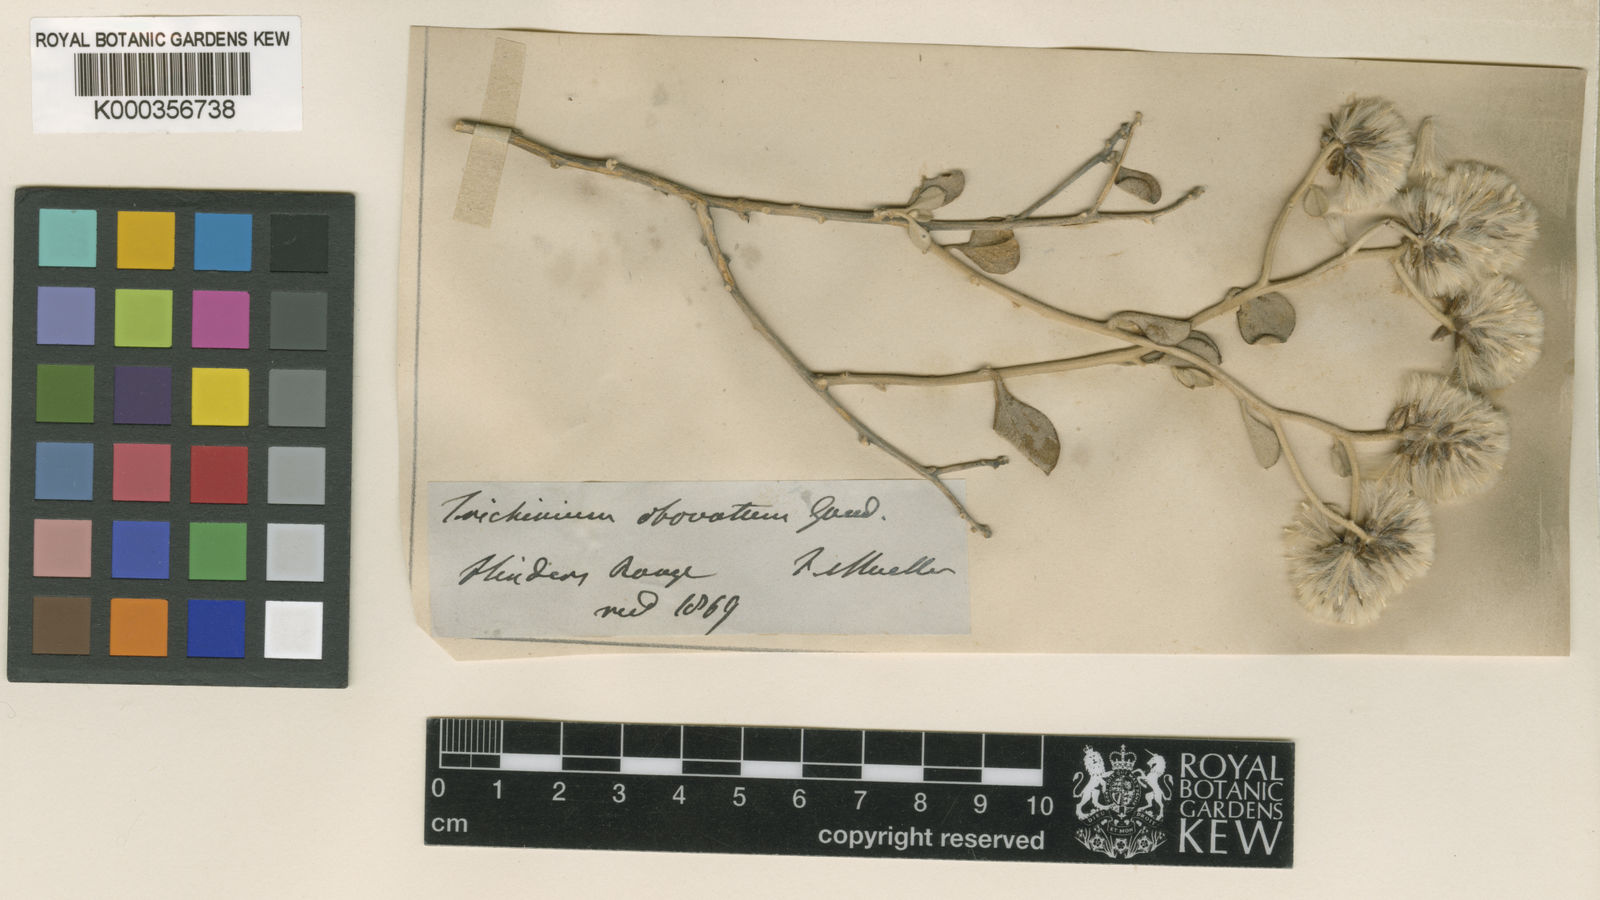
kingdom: Plantae
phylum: Tracheophyta
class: Magnoliopsida
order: Caryophyllales
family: Amaranthaceae
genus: Ptilotus
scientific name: Ptilotus obovatus
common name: Cottonbush
